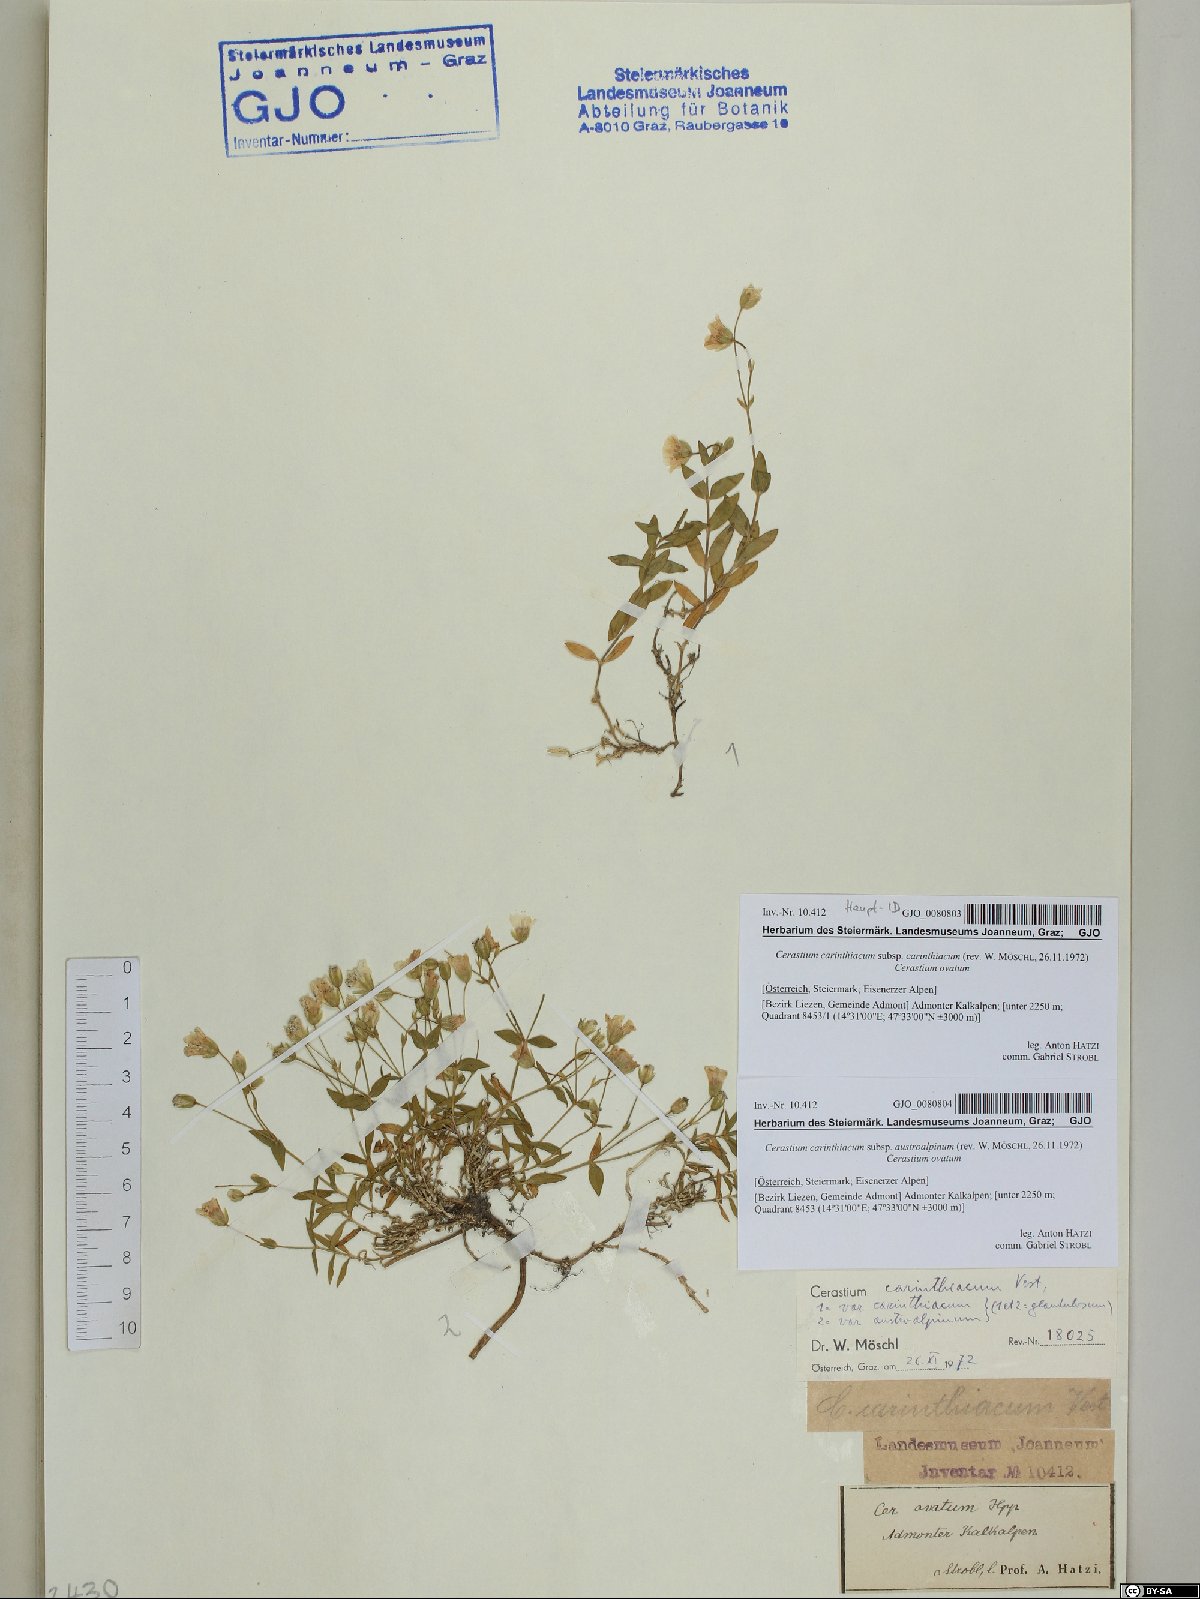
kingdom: Plantae
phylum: Tracheophyta
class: Magnoliopsida
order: Caryophyllales
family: Caryophyllaceae
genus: Cerastium
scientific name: Cerastium carinthiacum
